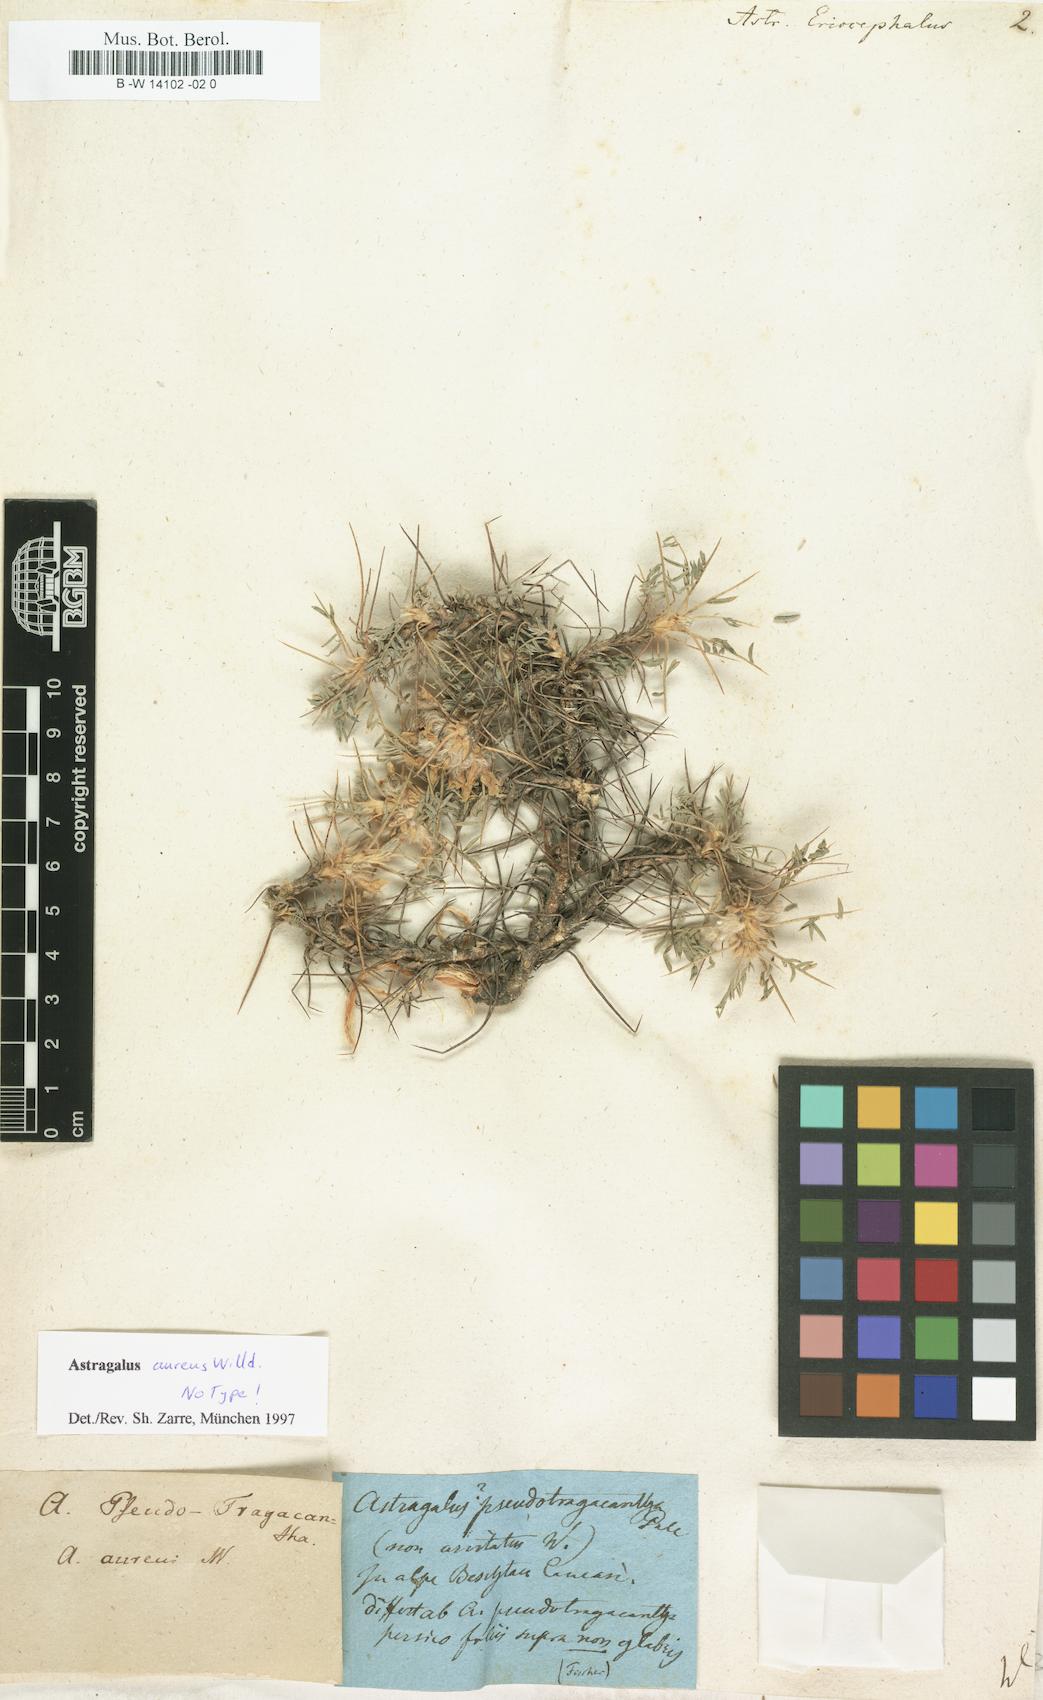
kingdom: Plantae
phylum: Tracheophyta
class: Magnoliopsida
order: Fabales
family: Fabaceae
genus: Astragalus
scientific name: Astragalus breviflorus
